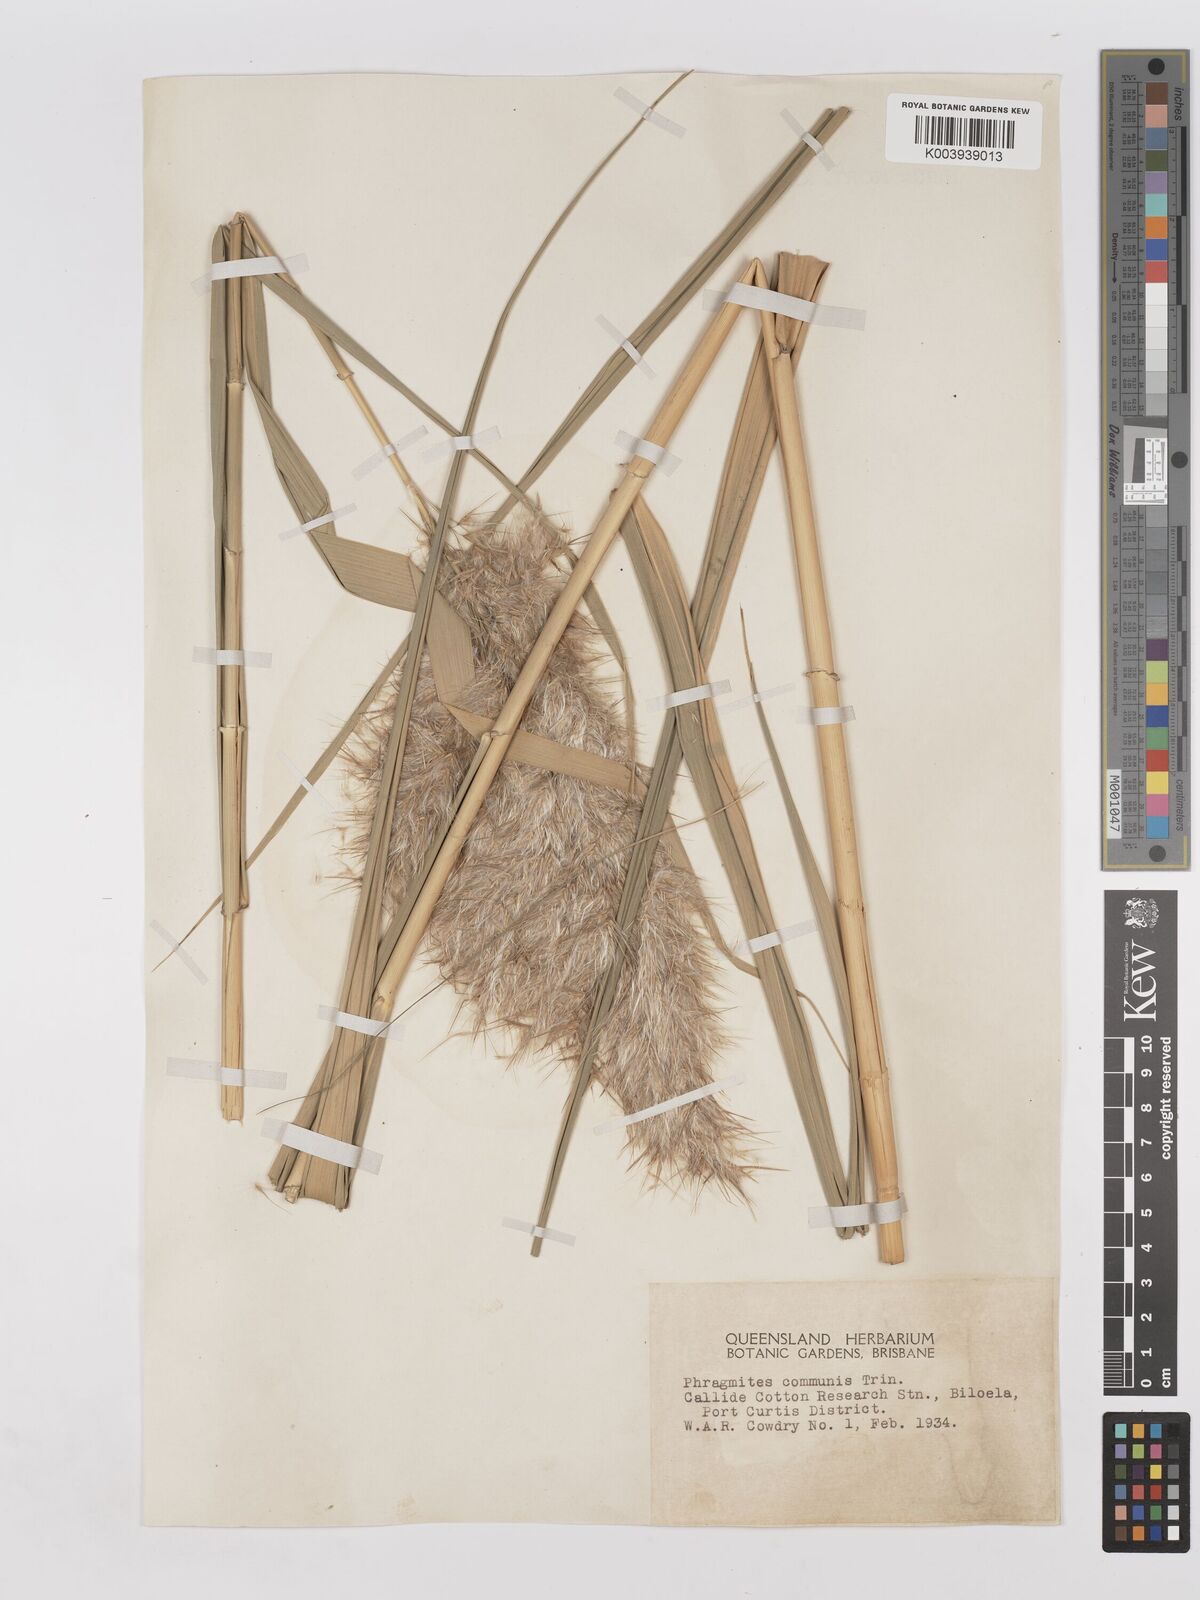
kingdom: Plantae
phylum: Tracheophyta
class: Liliopsida
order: Poales
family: Poaceae
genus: Phragmites
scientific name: Phragmites australis
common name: Common reed
